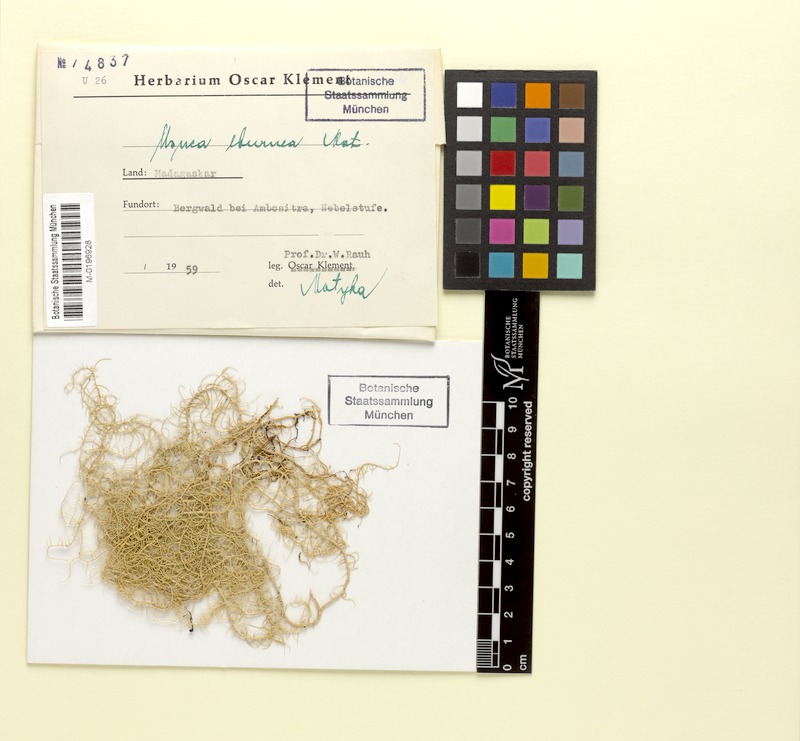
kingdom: Fungi
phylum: Ascomycota
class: Lecanoromycetes
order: Lecanorales
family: Parmeliaceae
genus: Usnea
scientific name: Usnea
